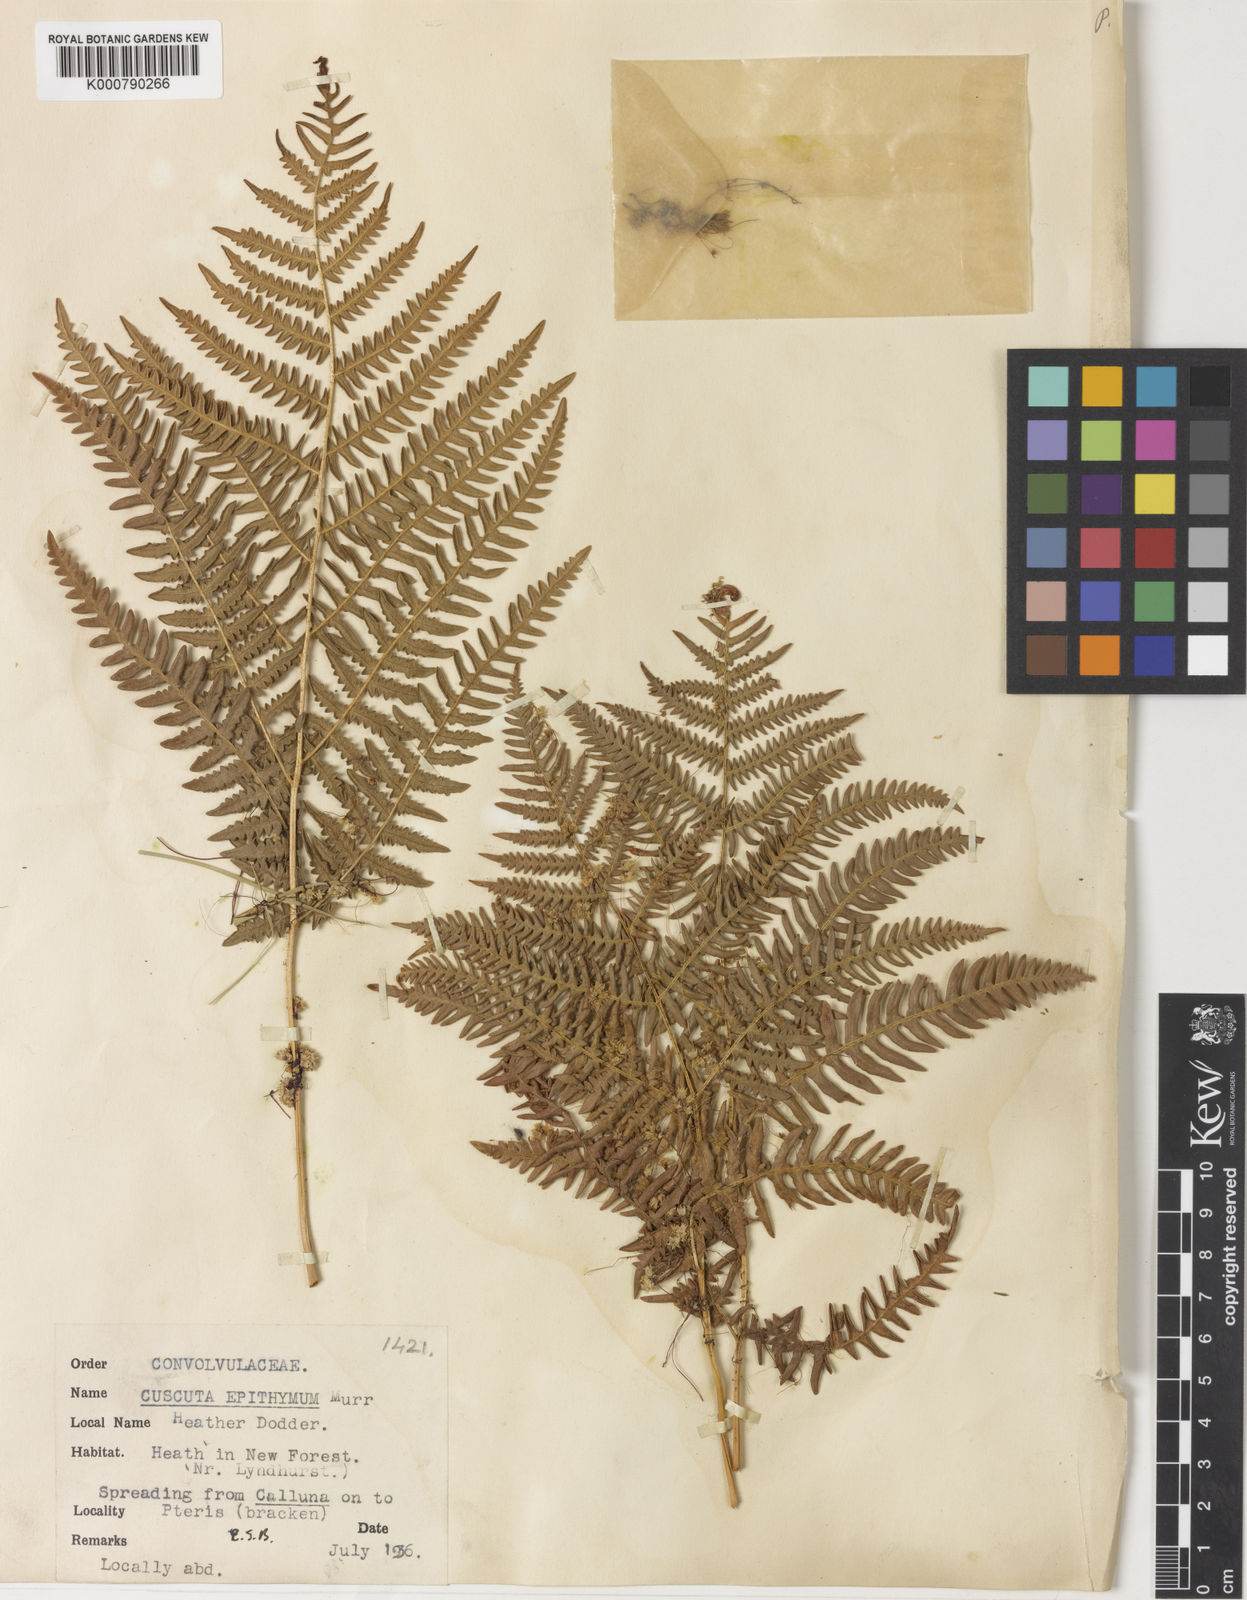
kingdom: Plantae
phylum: Tracheophyta
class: Magnoliopsida
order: Solanales
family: Convolvulaceae
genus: Cuscuta
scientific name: Cuscuta epithymum
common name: Clover dodder
